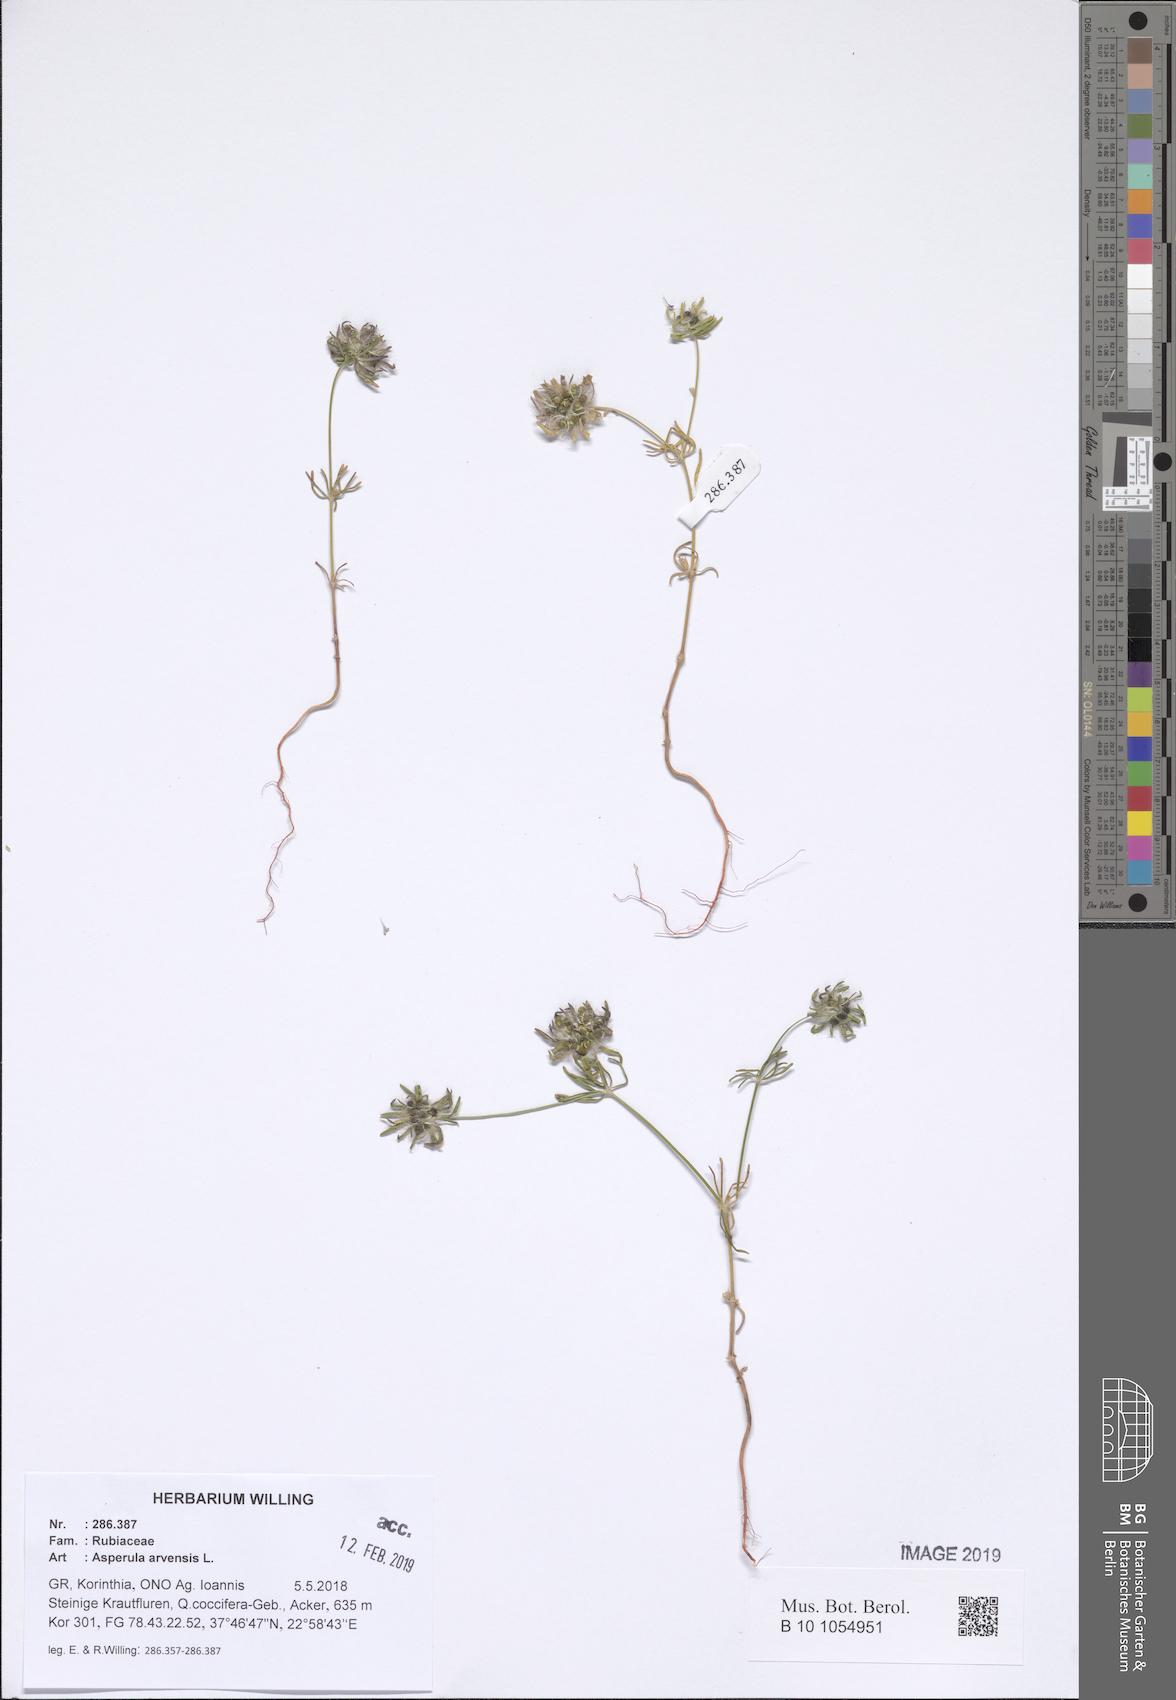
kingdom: Plantae
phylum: Tracheophyta
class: Magnoliopsida
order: Gentianales
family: Rubiaceae
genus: Asperula
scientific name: Asperula arvensis
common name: Blue woodruff
